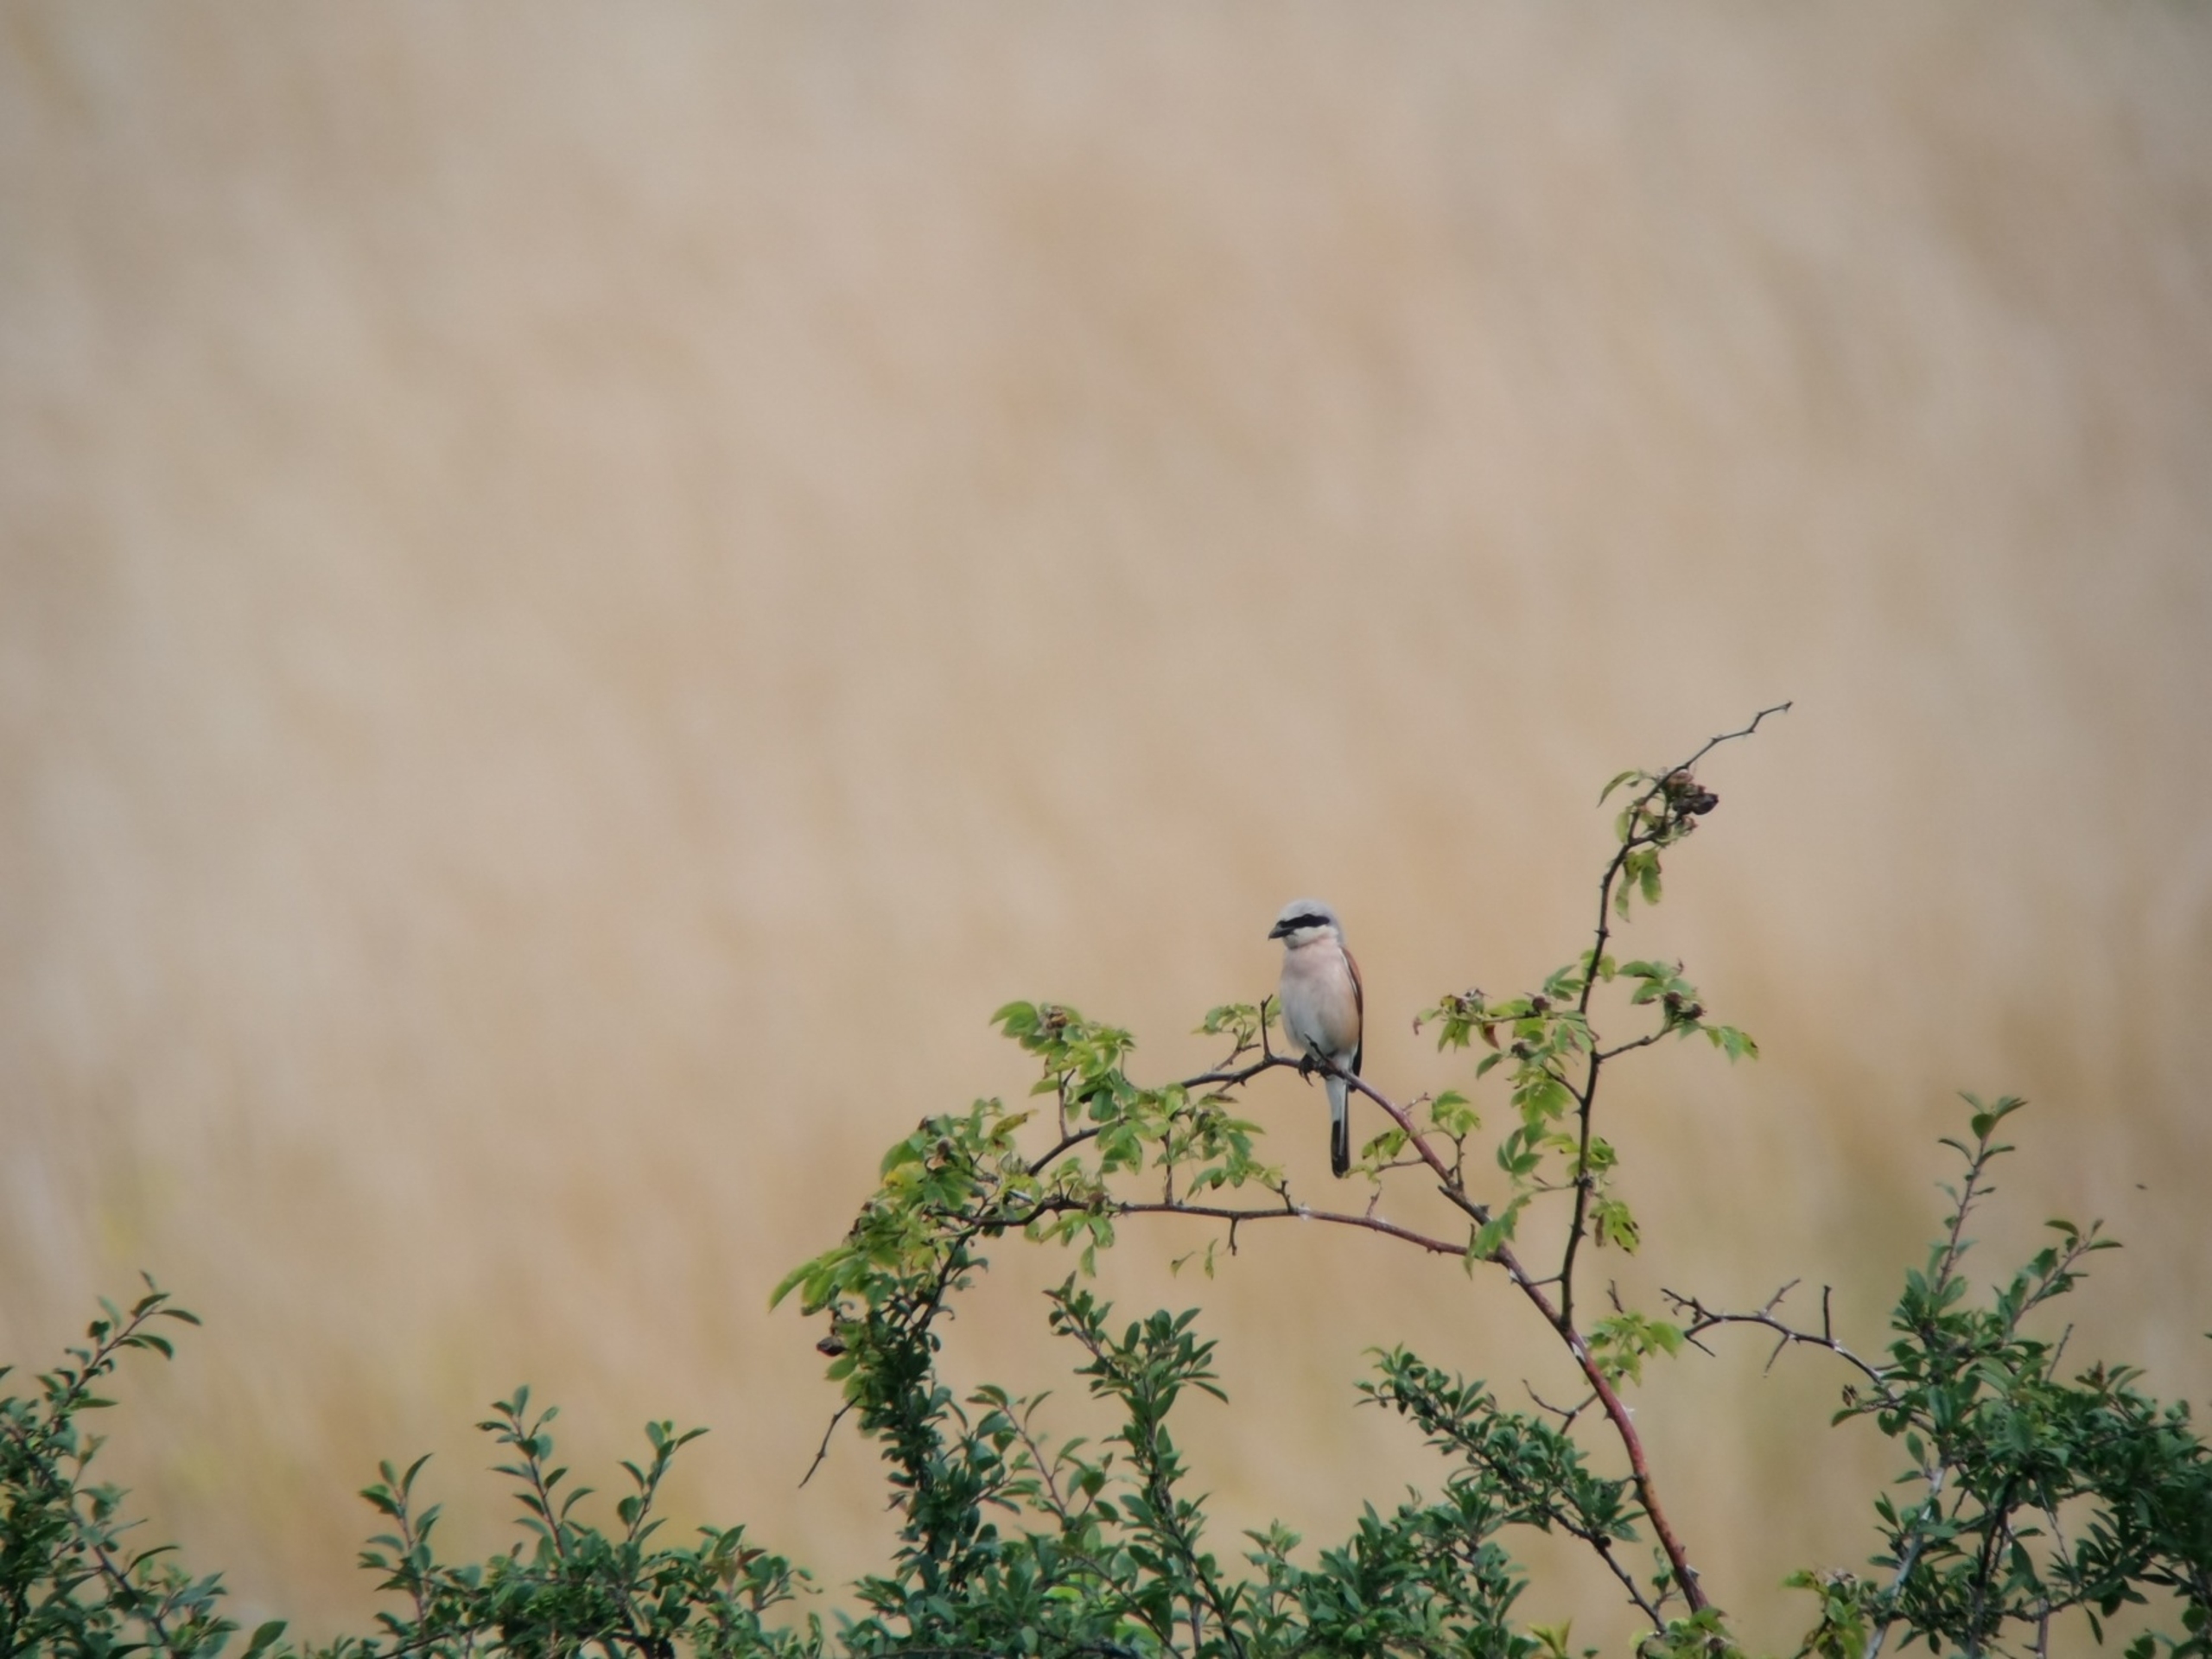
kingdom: Animalia
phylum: Chordata
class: Aves
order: Passeriformes
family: Laniidae
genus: Lanius
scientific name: Lanius collurio
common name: Rødrygget tornskade
